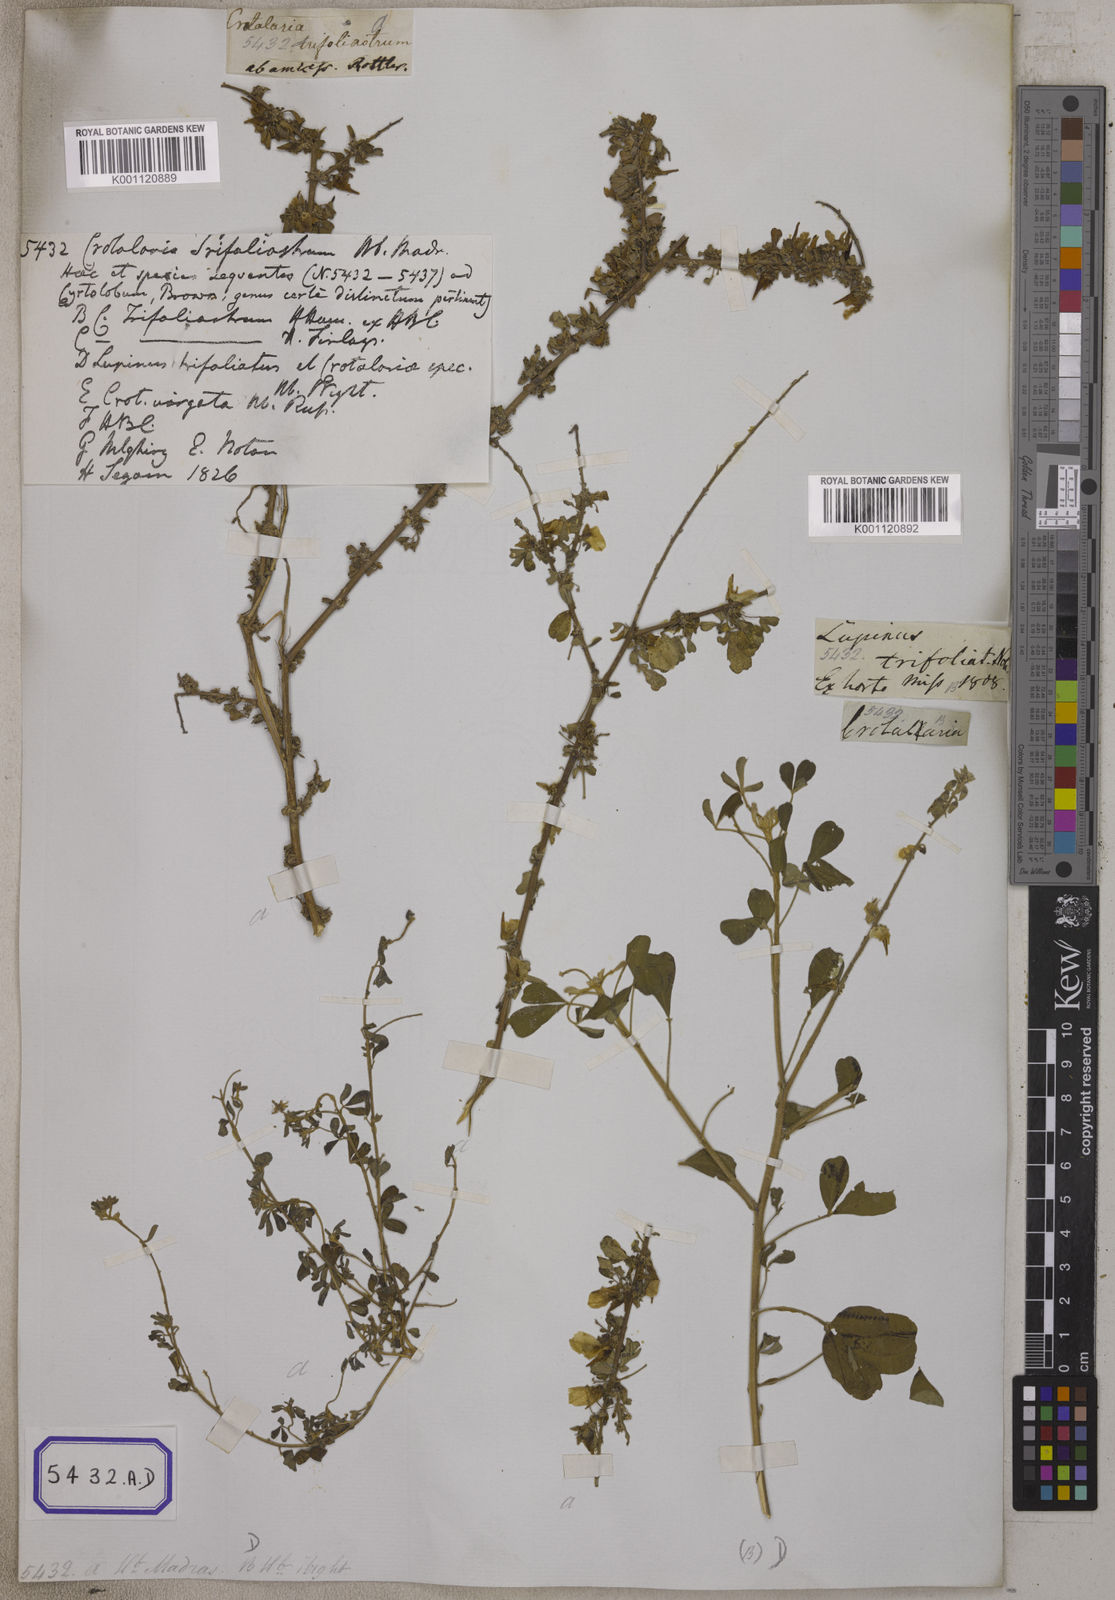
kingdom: Plantae
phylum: Tracheophyta
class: Magnoliopsida
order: Fabales
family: Fabaceae
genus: Crotalaria
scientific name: Crotalaria
